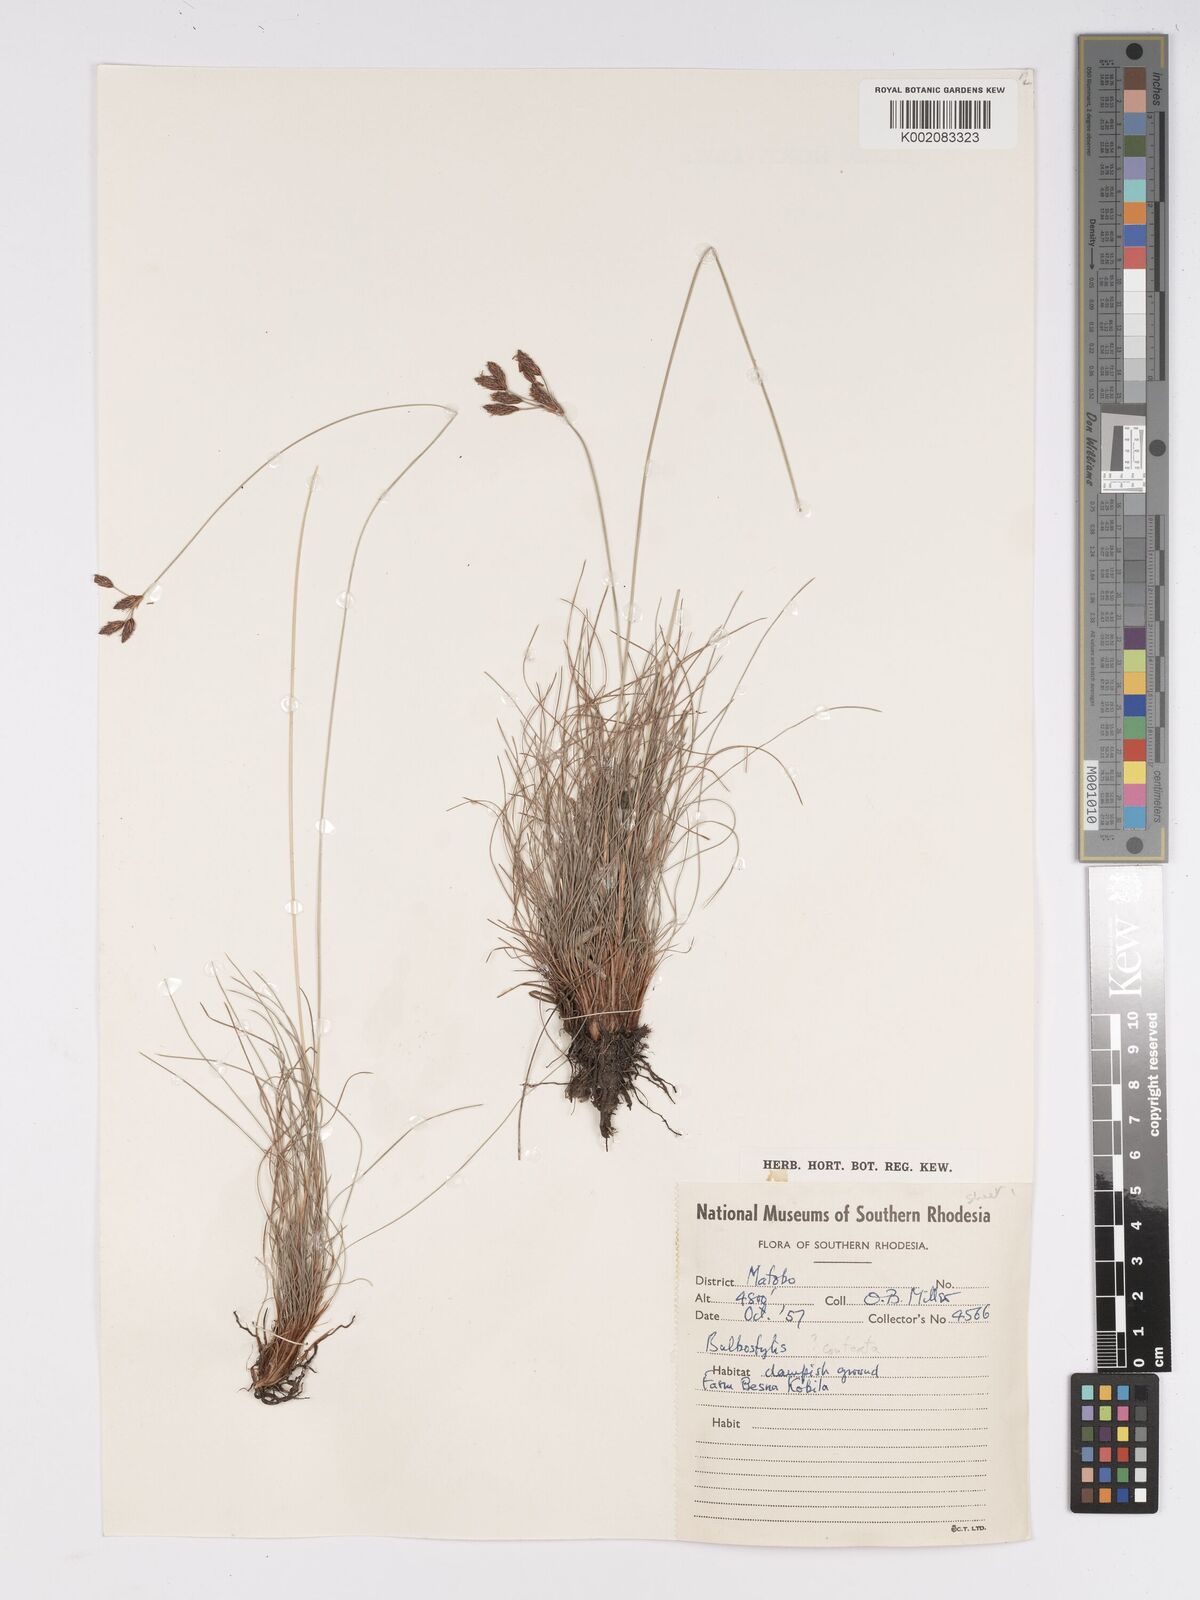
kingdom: Plantae
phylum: Tracheophyta
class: Liliopsida
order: Poales
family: Cyperaceae
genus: Bulbostylis
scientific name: Bulbostylis schoenoides
